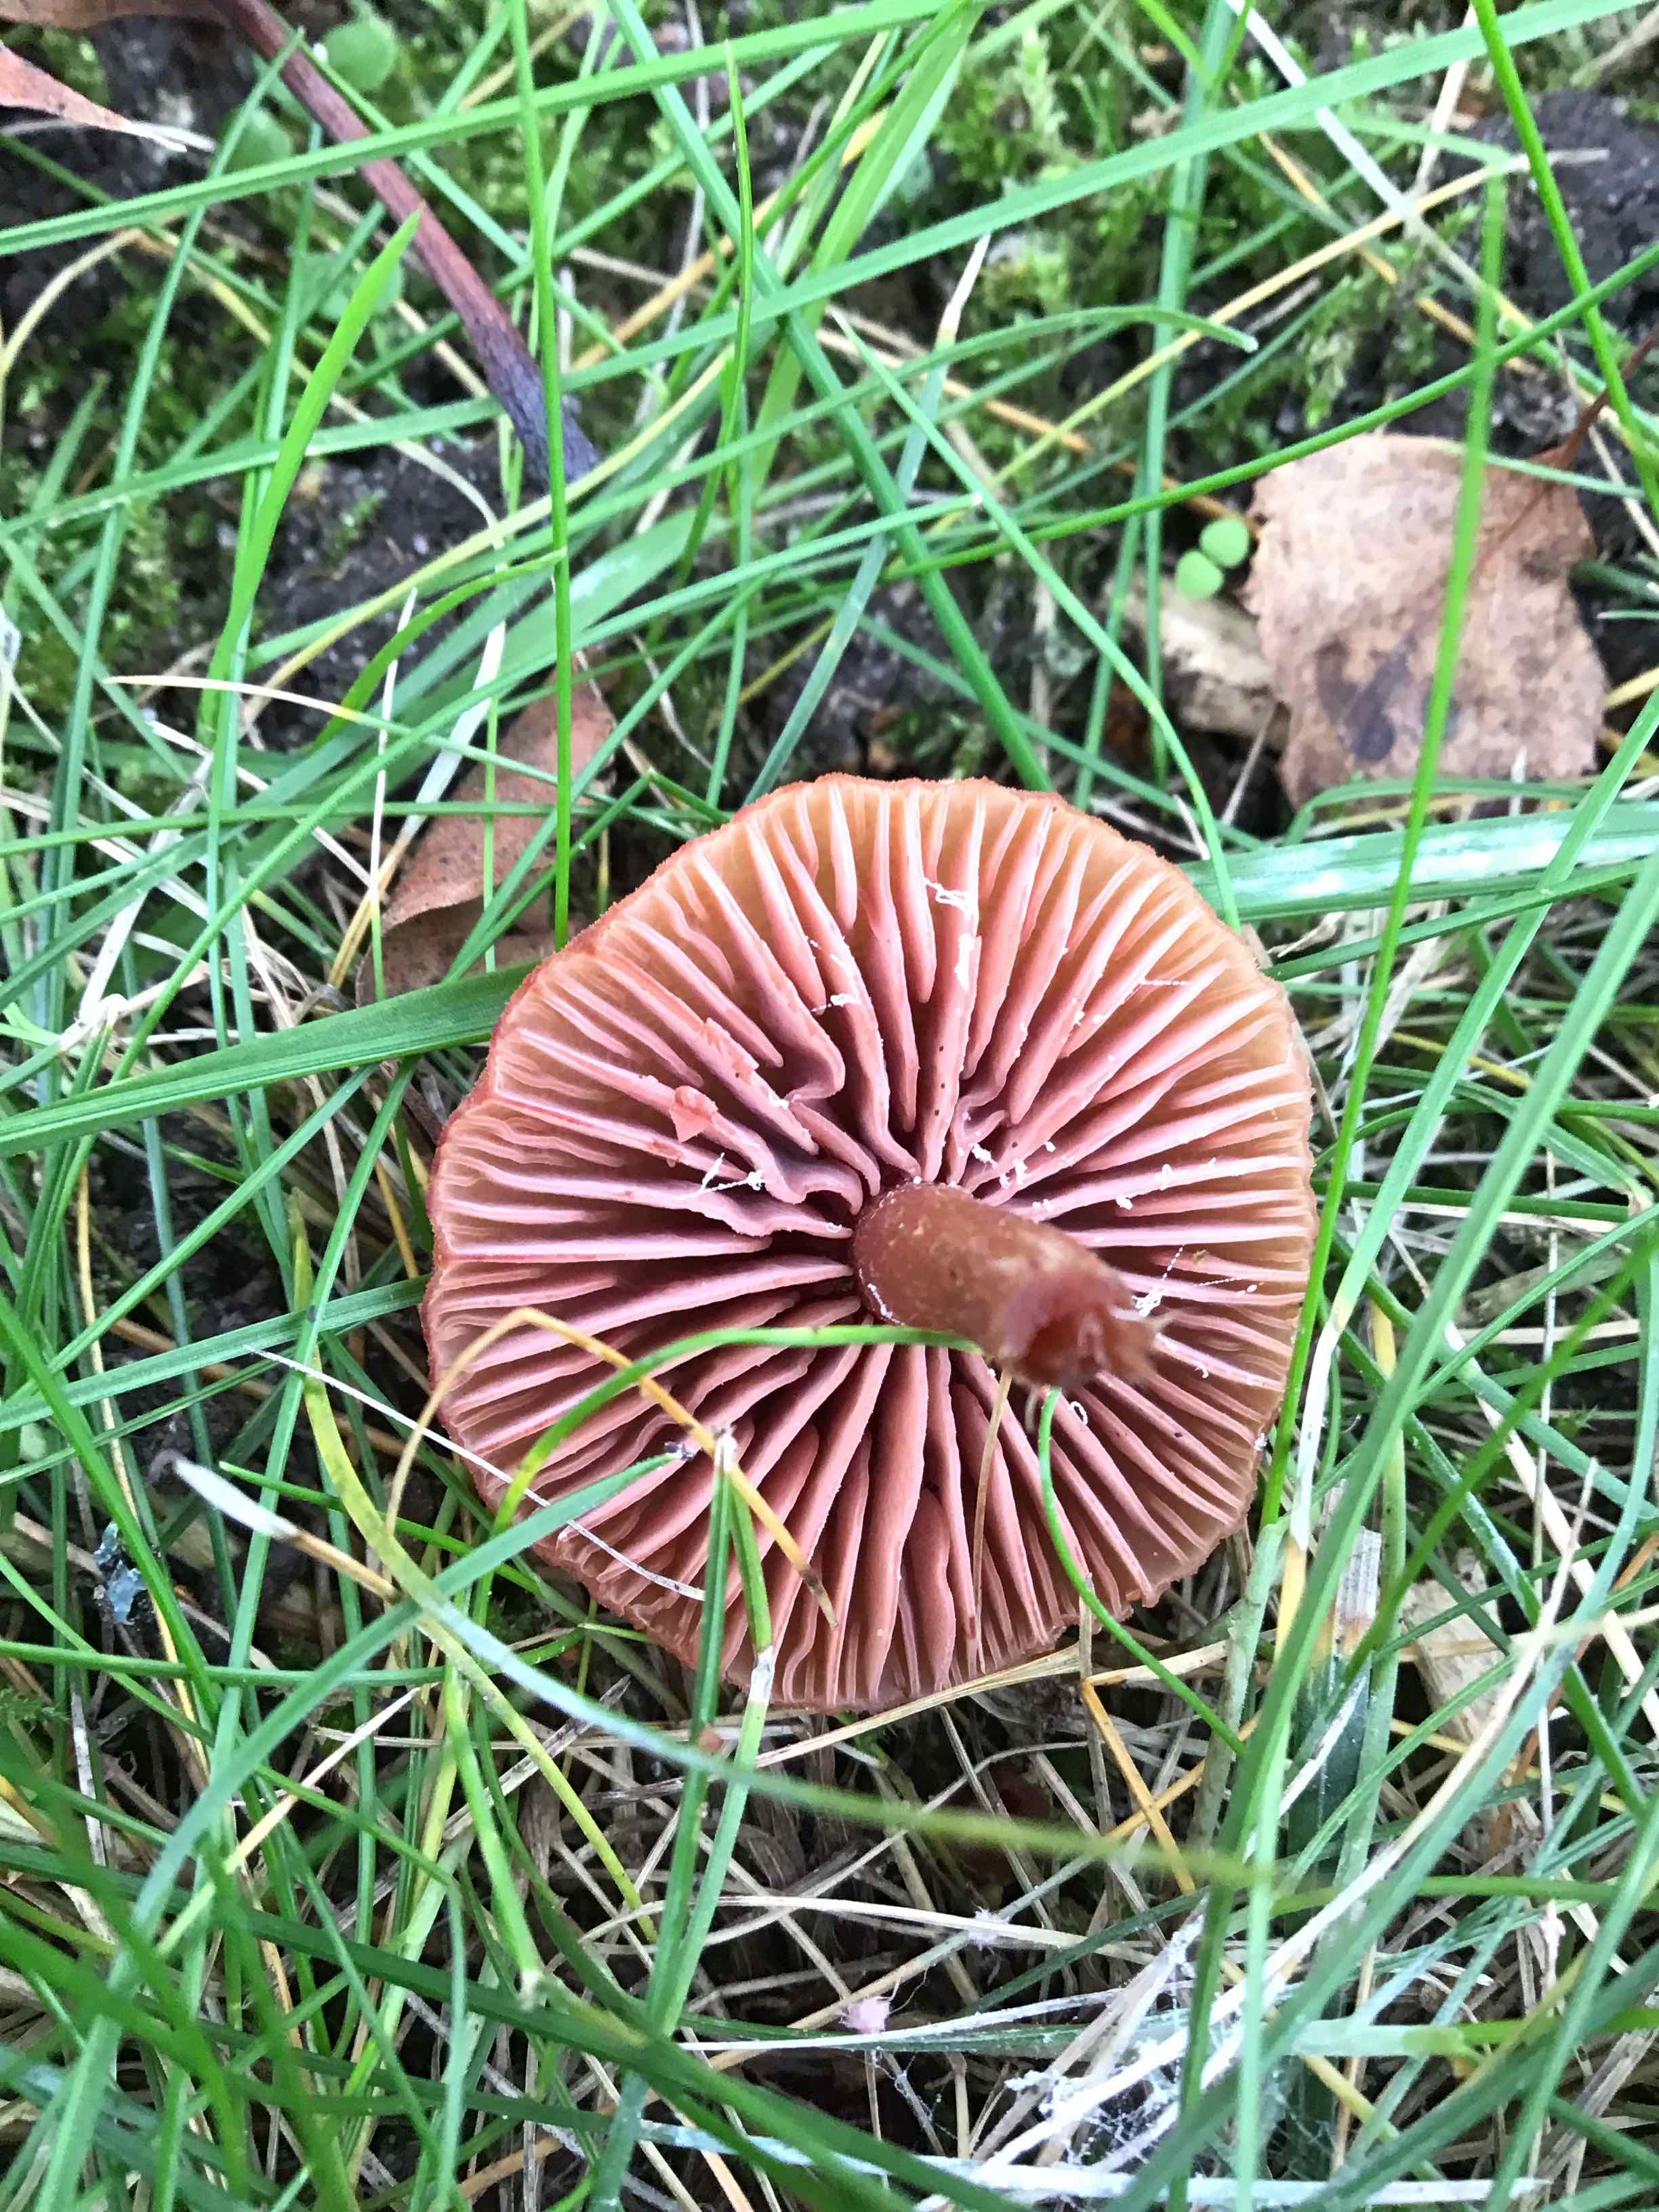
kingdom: Fungi
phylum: Basidiomycota
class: Agaricomycetes
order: Agaricales
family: Hydnangiaceae
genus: Laccaria
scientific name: Laccaria laccata
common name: rød ametysthat
